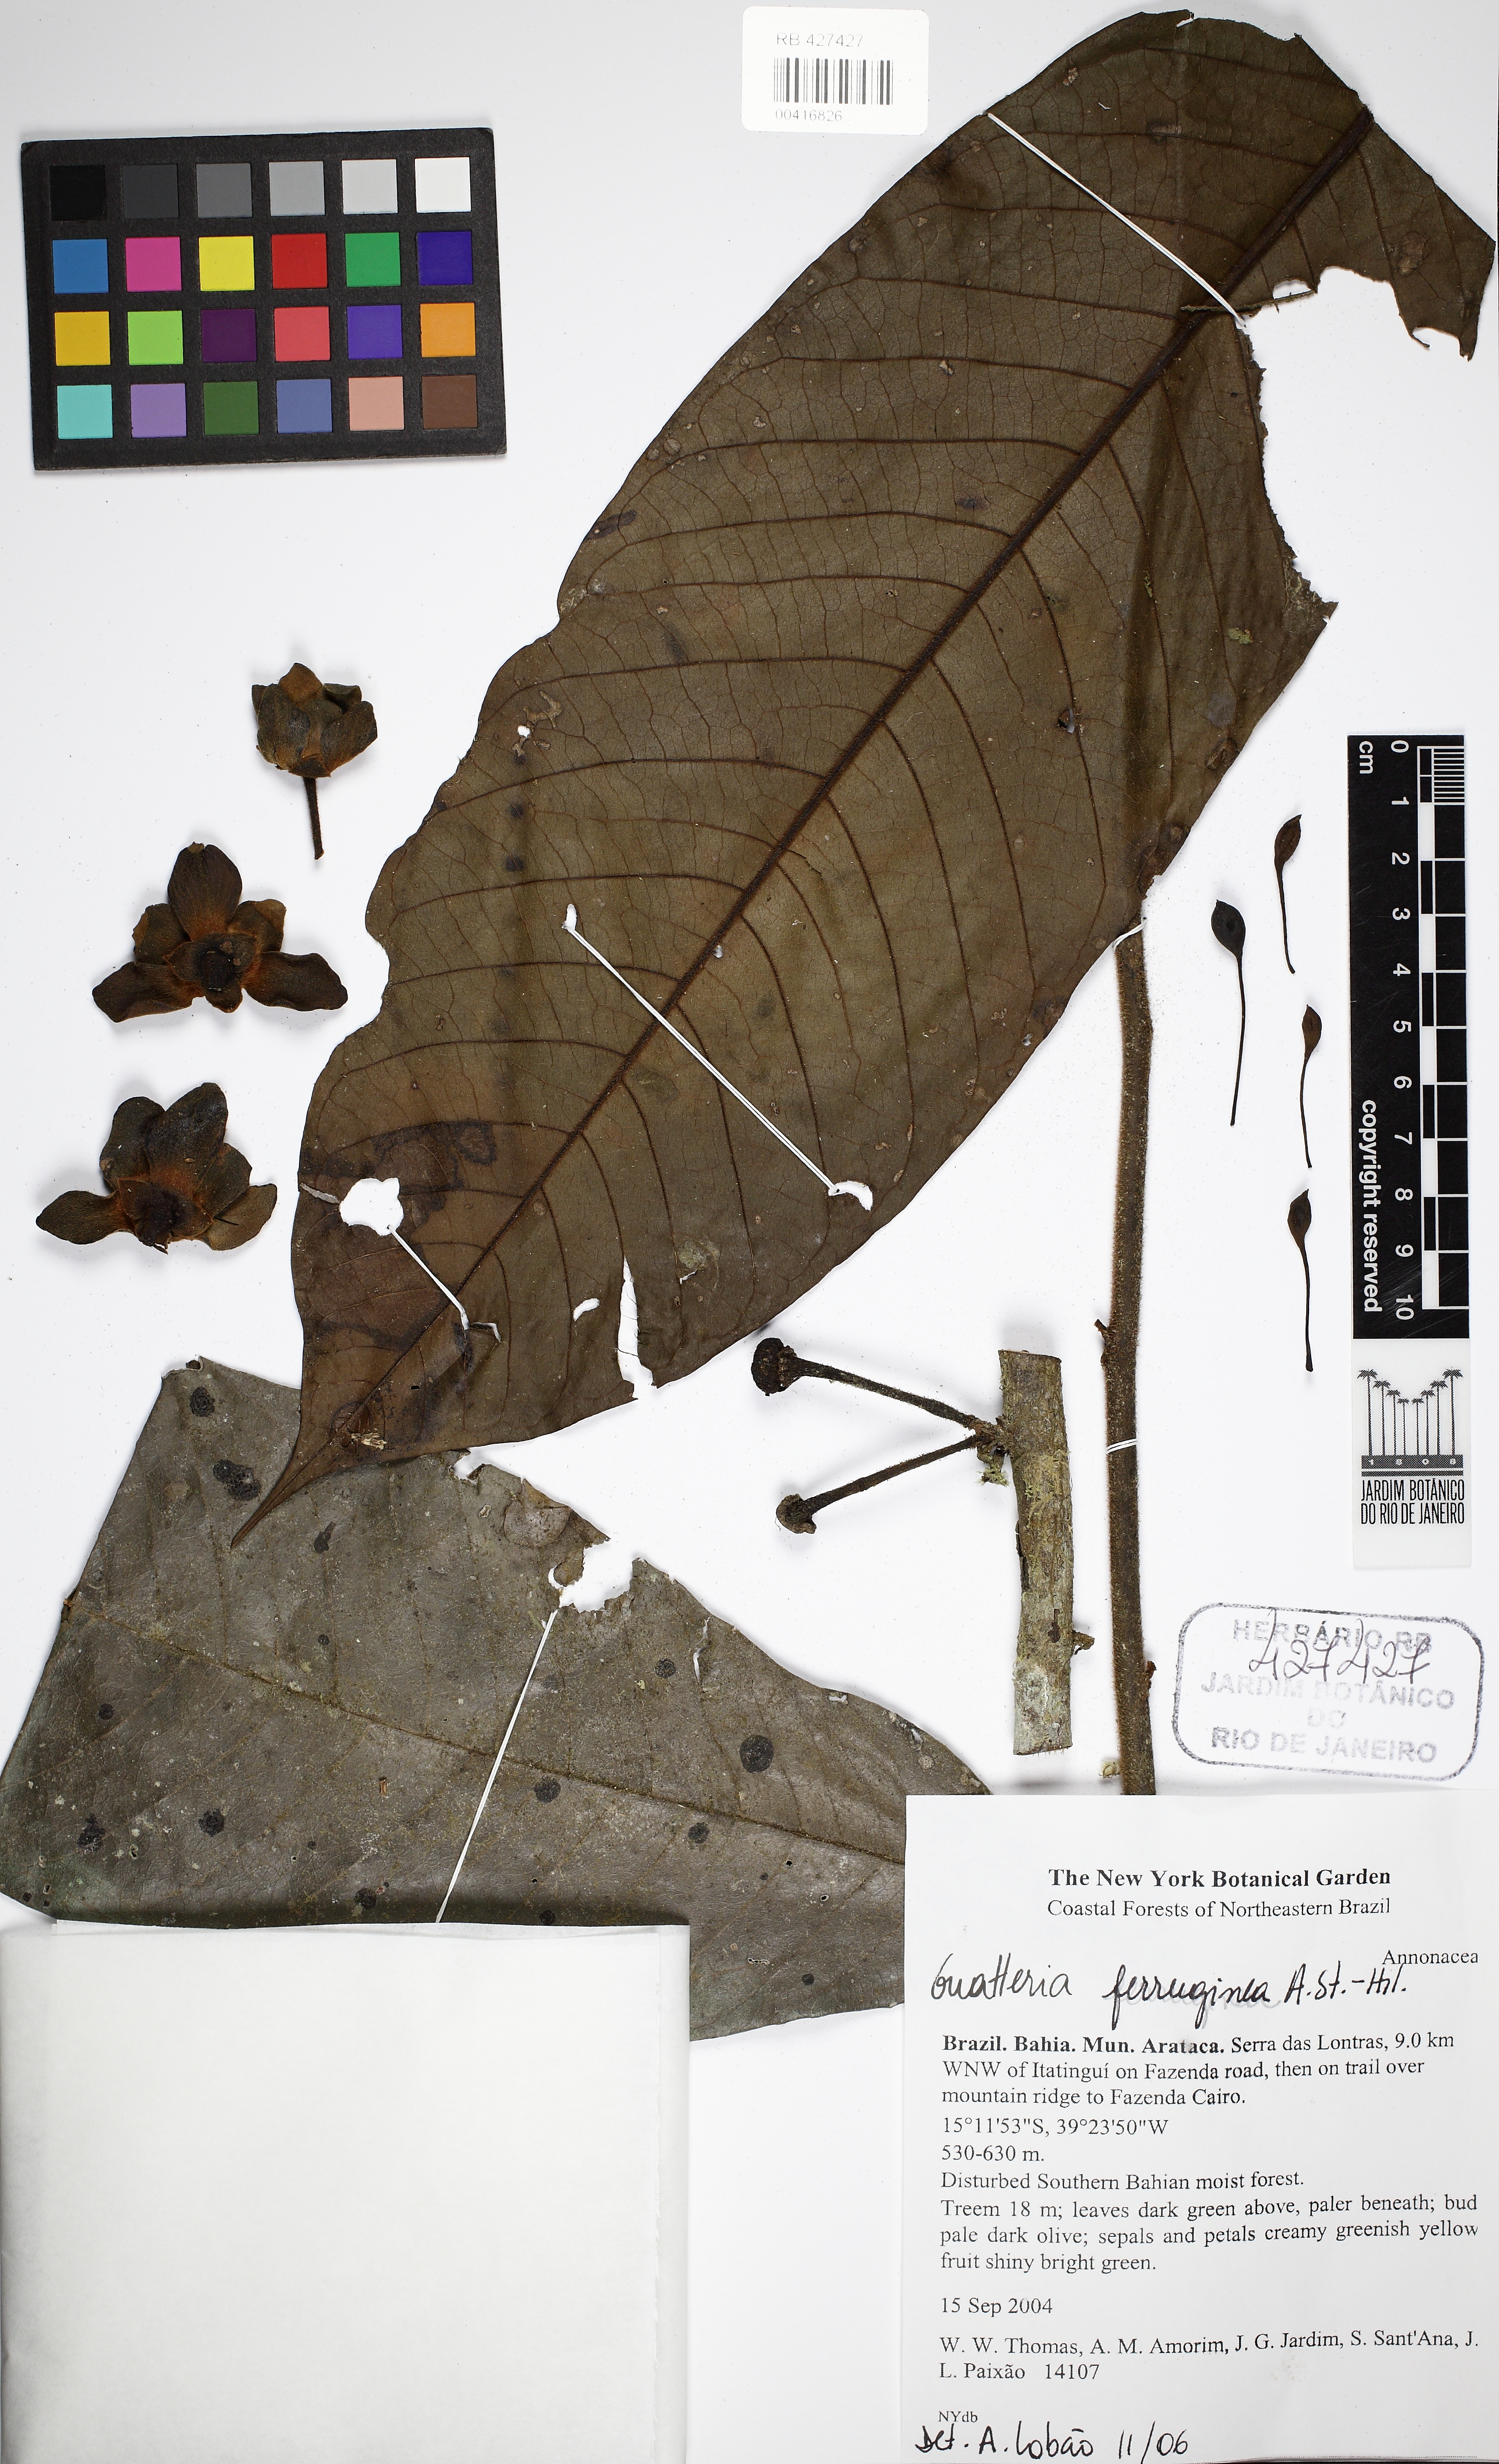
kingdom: Plantae
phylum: Tracheophyta
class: Magnoliopsida
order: Magnoliales
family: Annonaceae
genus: Guatteria
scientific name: Guatteria ferruginea
